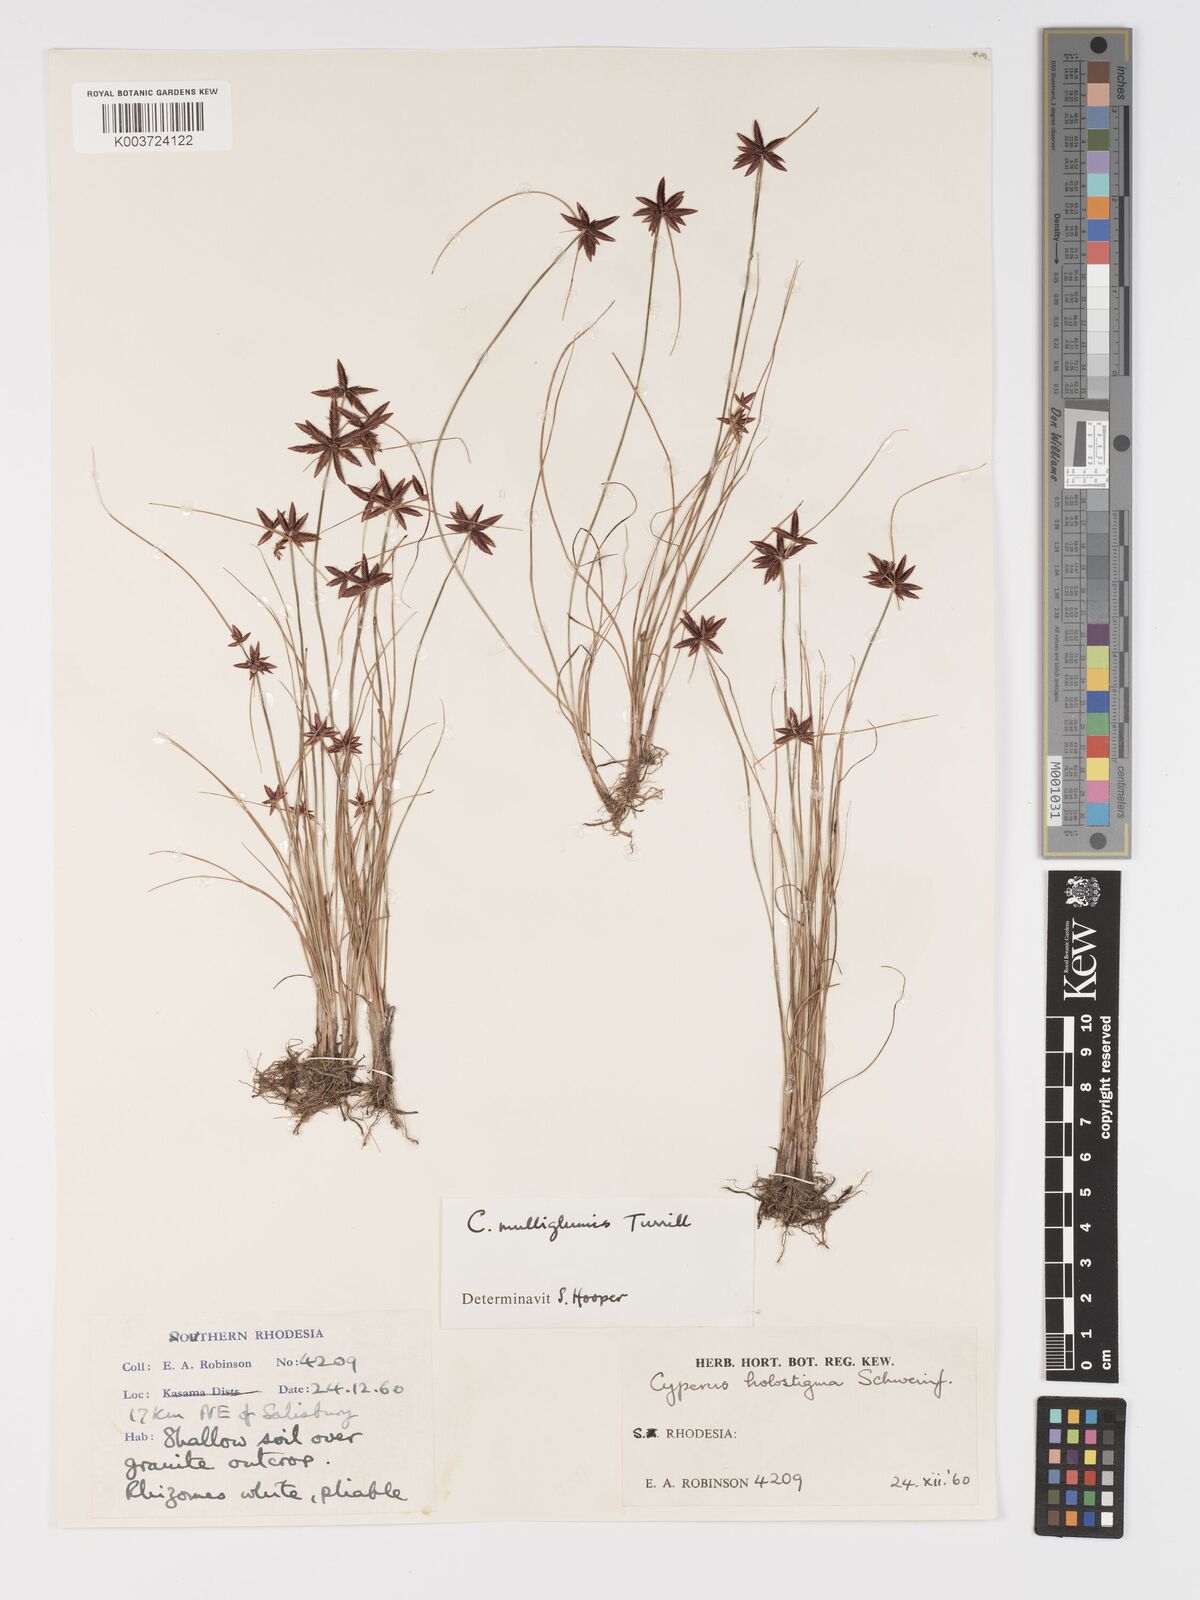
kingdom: Plantae
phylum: Tracheophyta
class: Liliopsida
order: Poales
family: Cyperaceae
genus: Cyperus
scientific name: Cyperus semitrifidus
